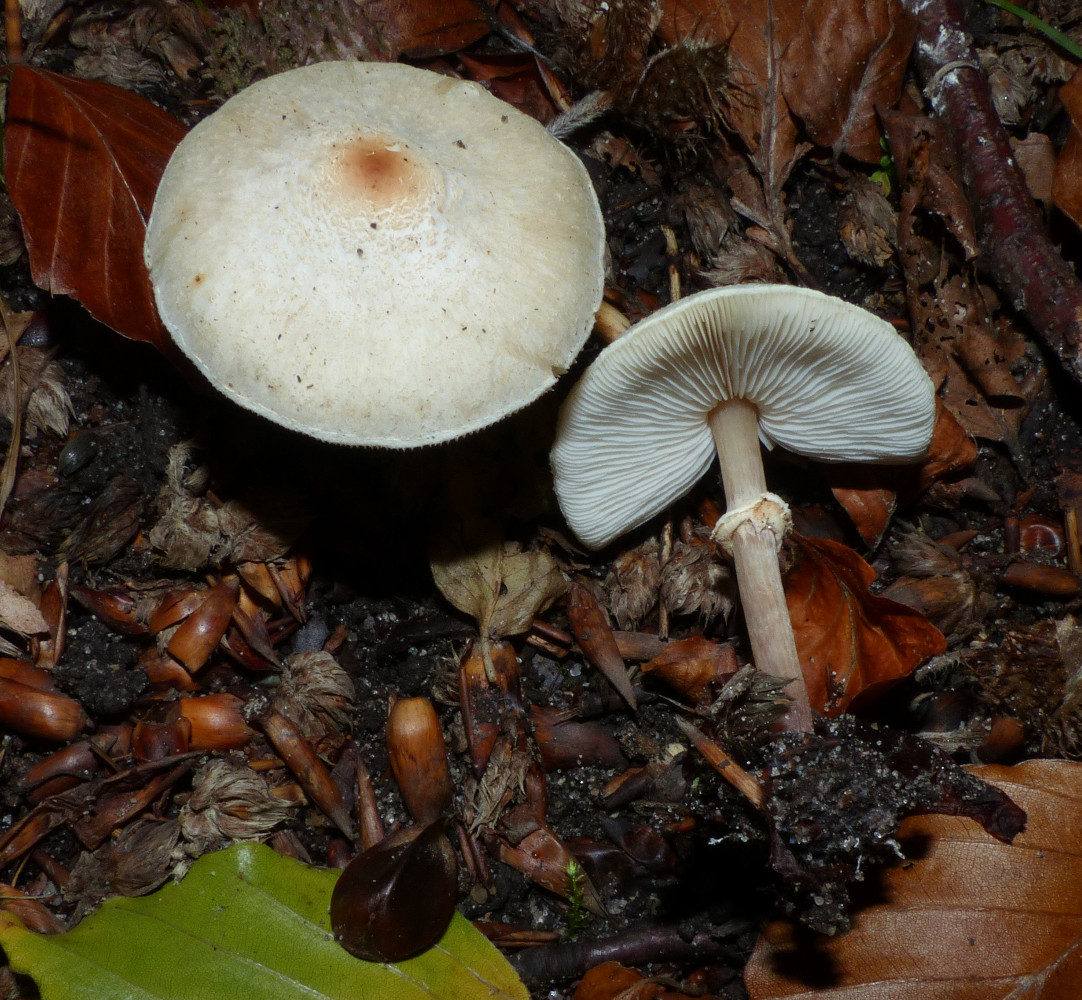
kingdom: Fungi
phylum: Basidiomycota
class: Agaricomycetes
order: Agaricales
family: Agaricaceae
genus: Lepiota
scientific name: Lepiota cristata
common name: stinkende parasolhat
